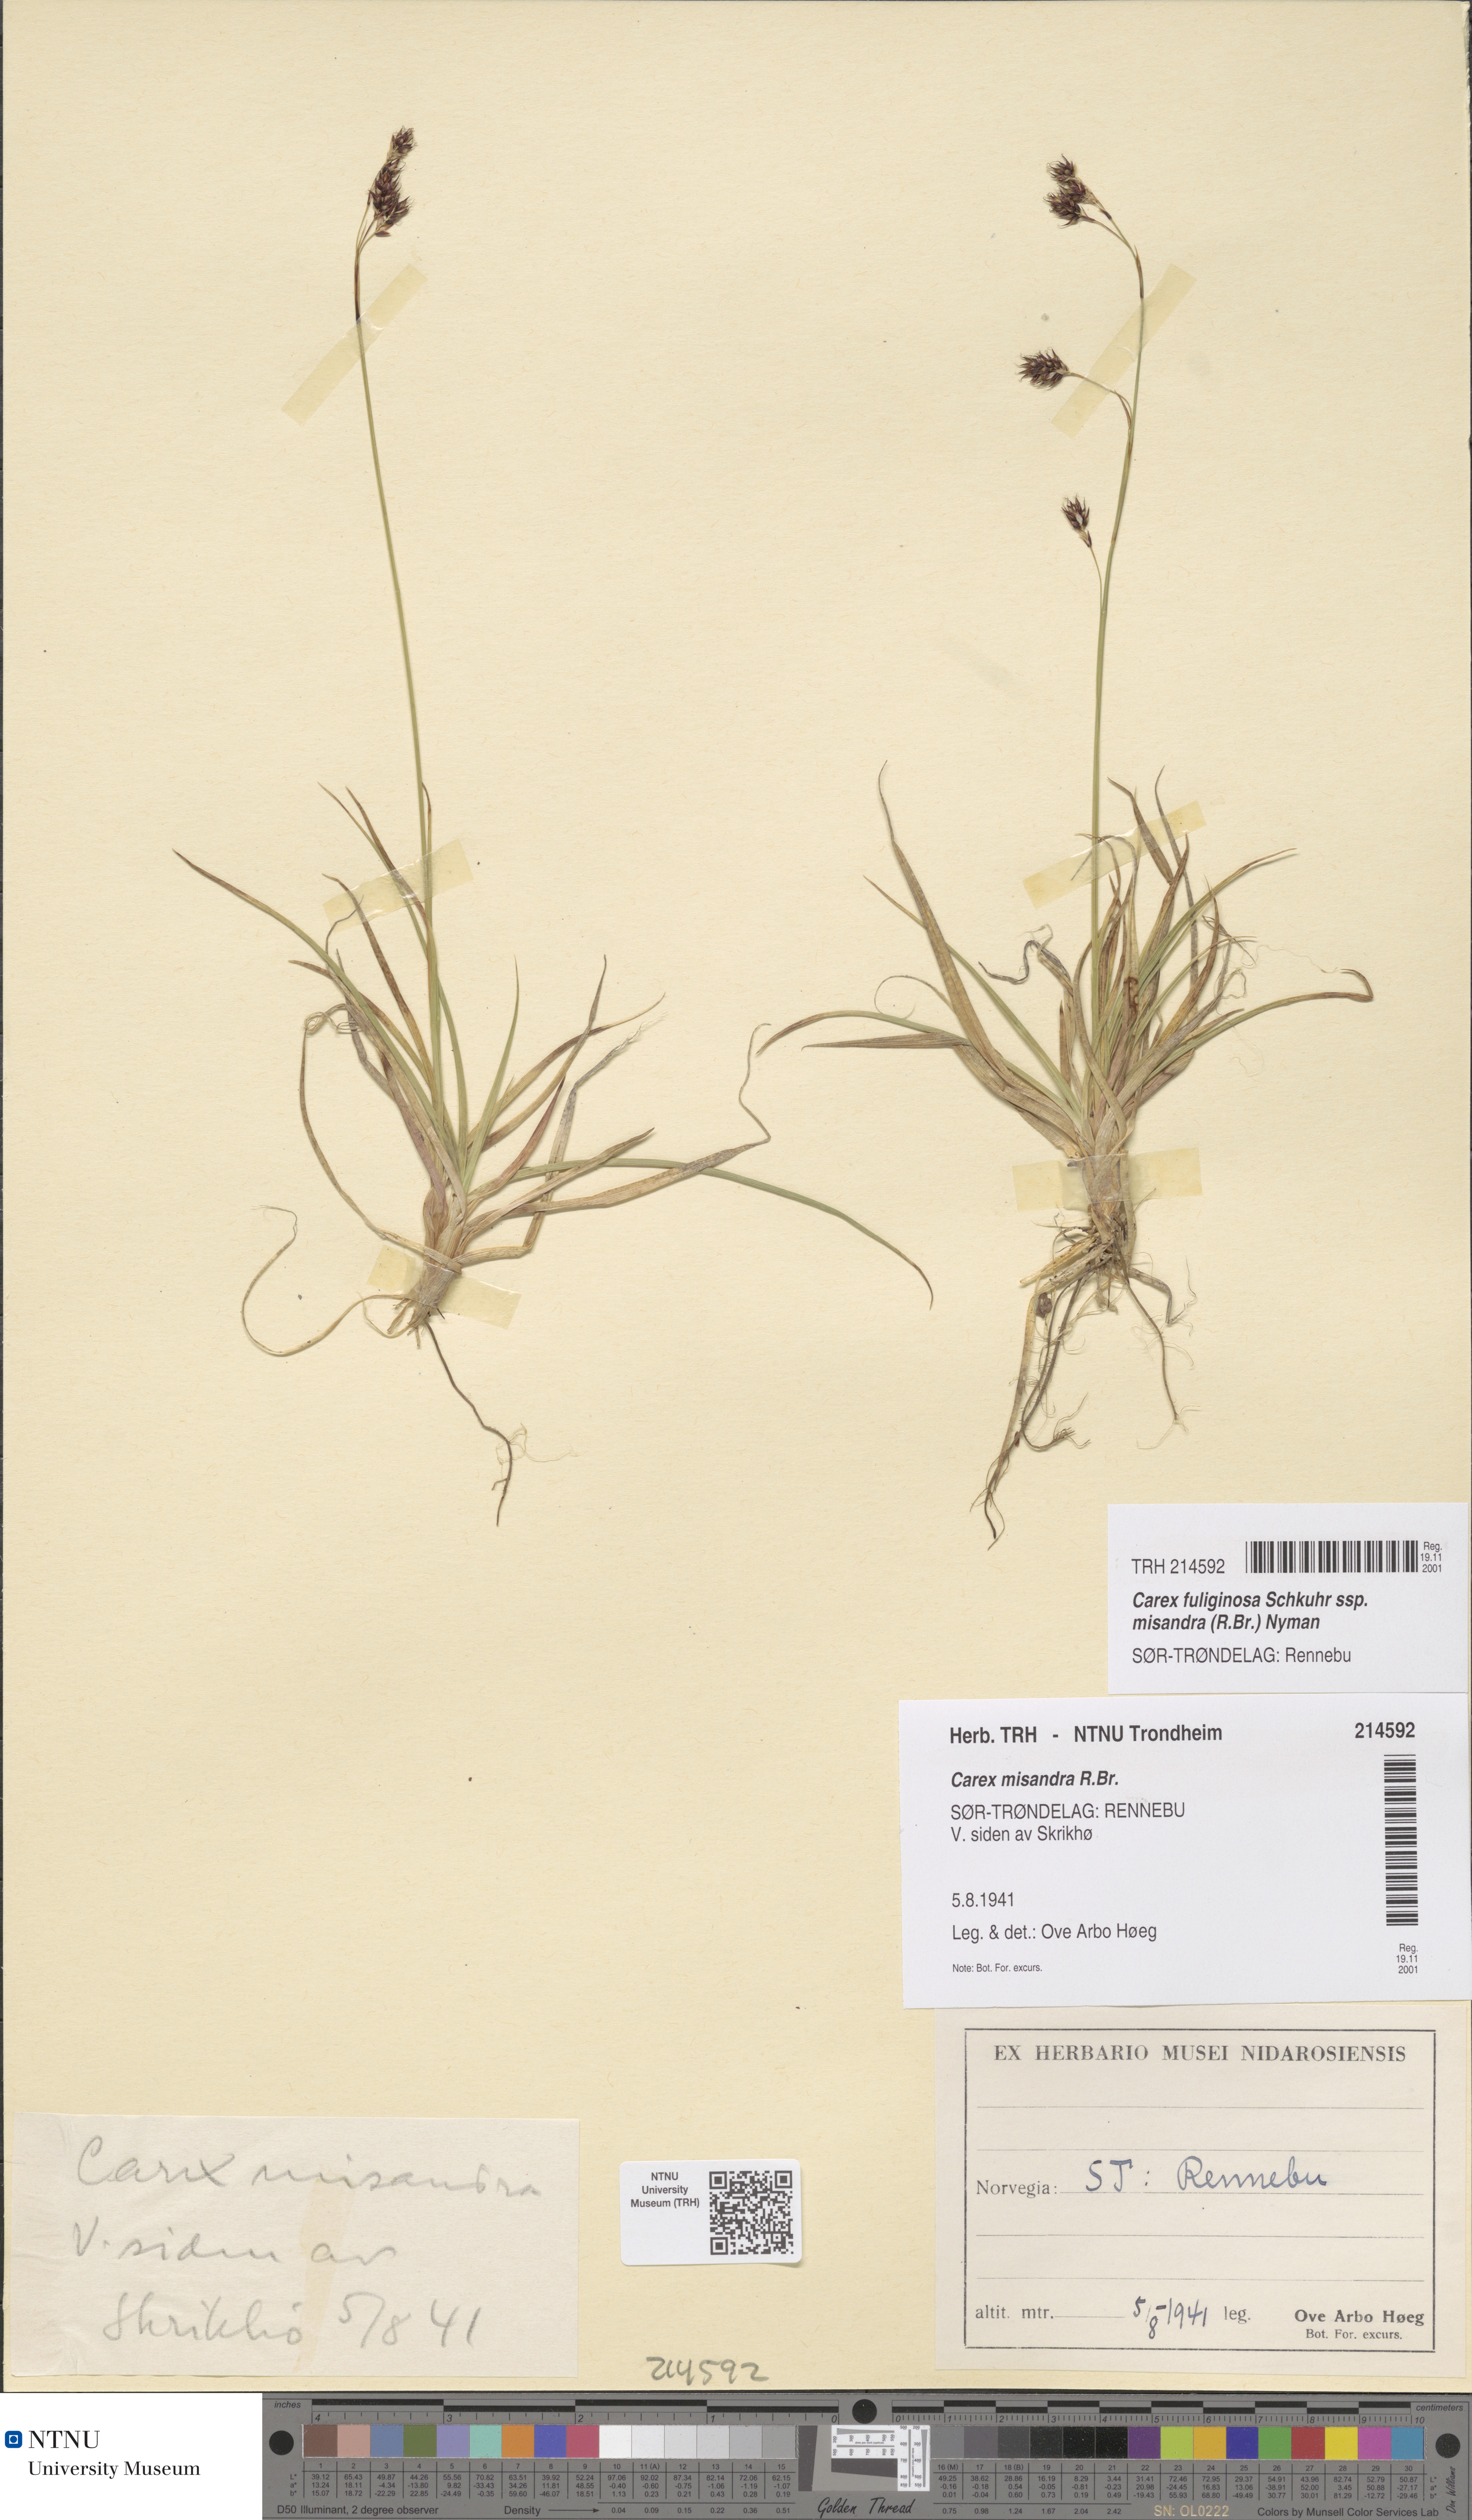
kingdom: Plantae
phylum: Tracheophyta
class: Liliopsida
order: Poales
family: Cyperaceae
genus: Carex
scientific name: Carex fuliginosa
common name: Few-flowered sedge
